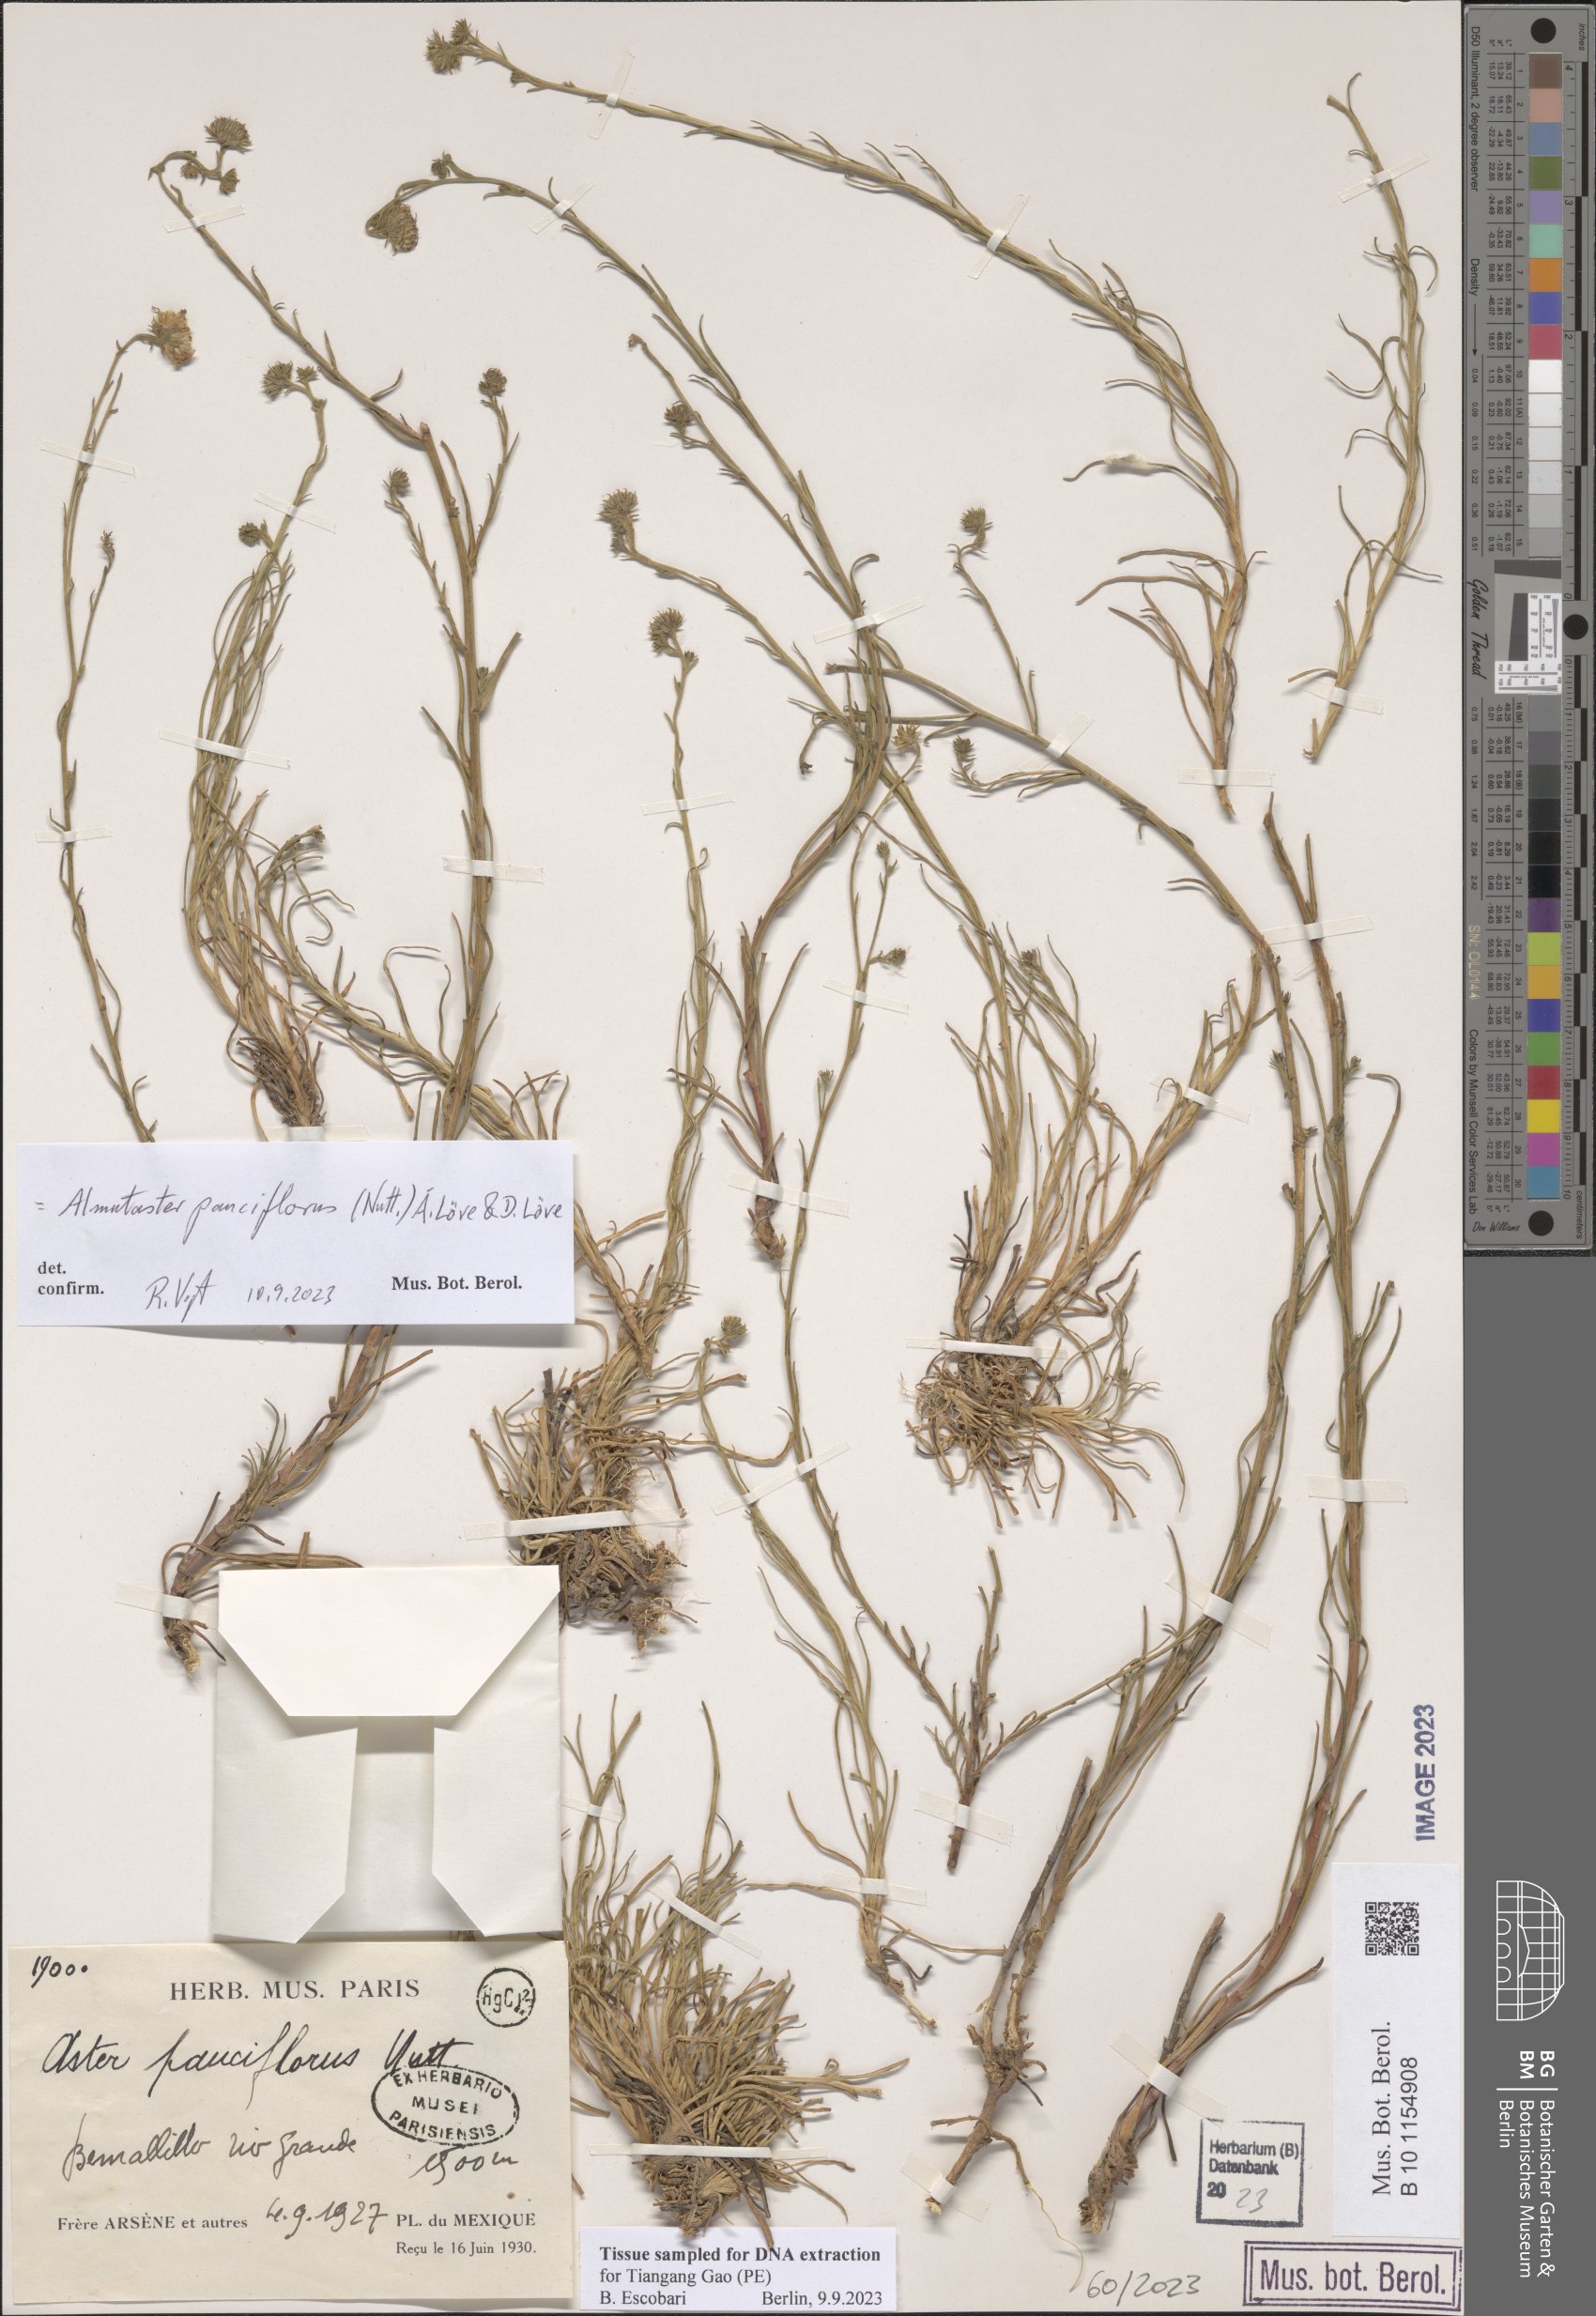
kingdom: Plantae
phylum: Tracheophyta
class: Magnoliopsida
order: Asterales
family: Asteraceae
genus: Almutaster
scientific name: Almutaster pauciflorus
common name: Alkaline aster
